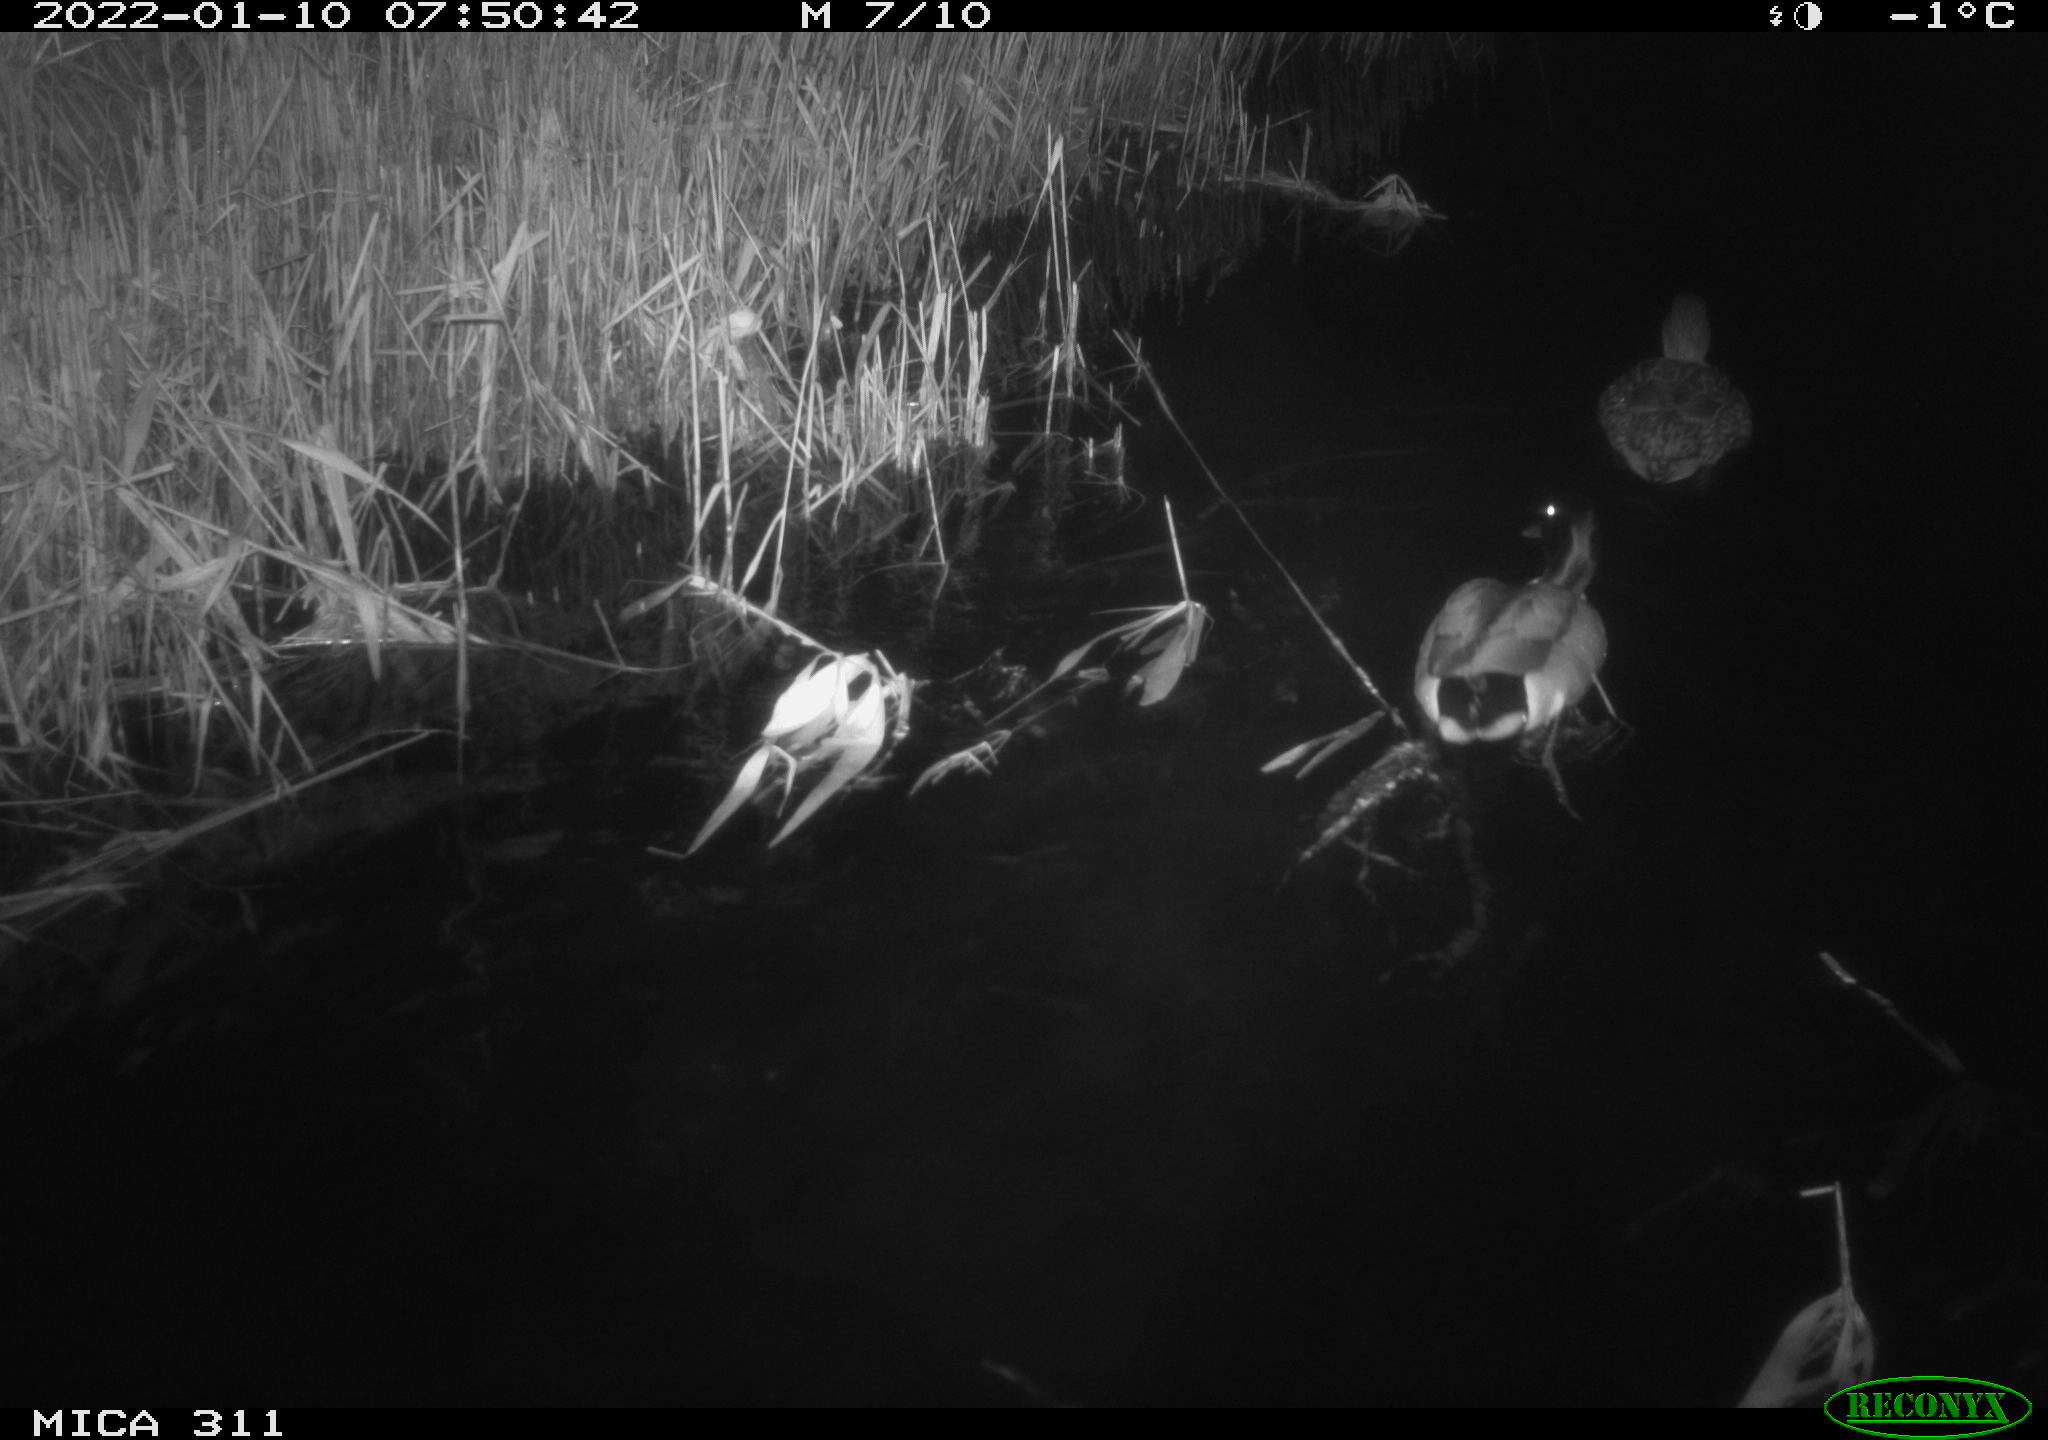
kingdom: Animalia
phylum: Chordata
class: Aves
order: Anseriformes
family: Anatidae
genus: Anas
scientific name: Anas
